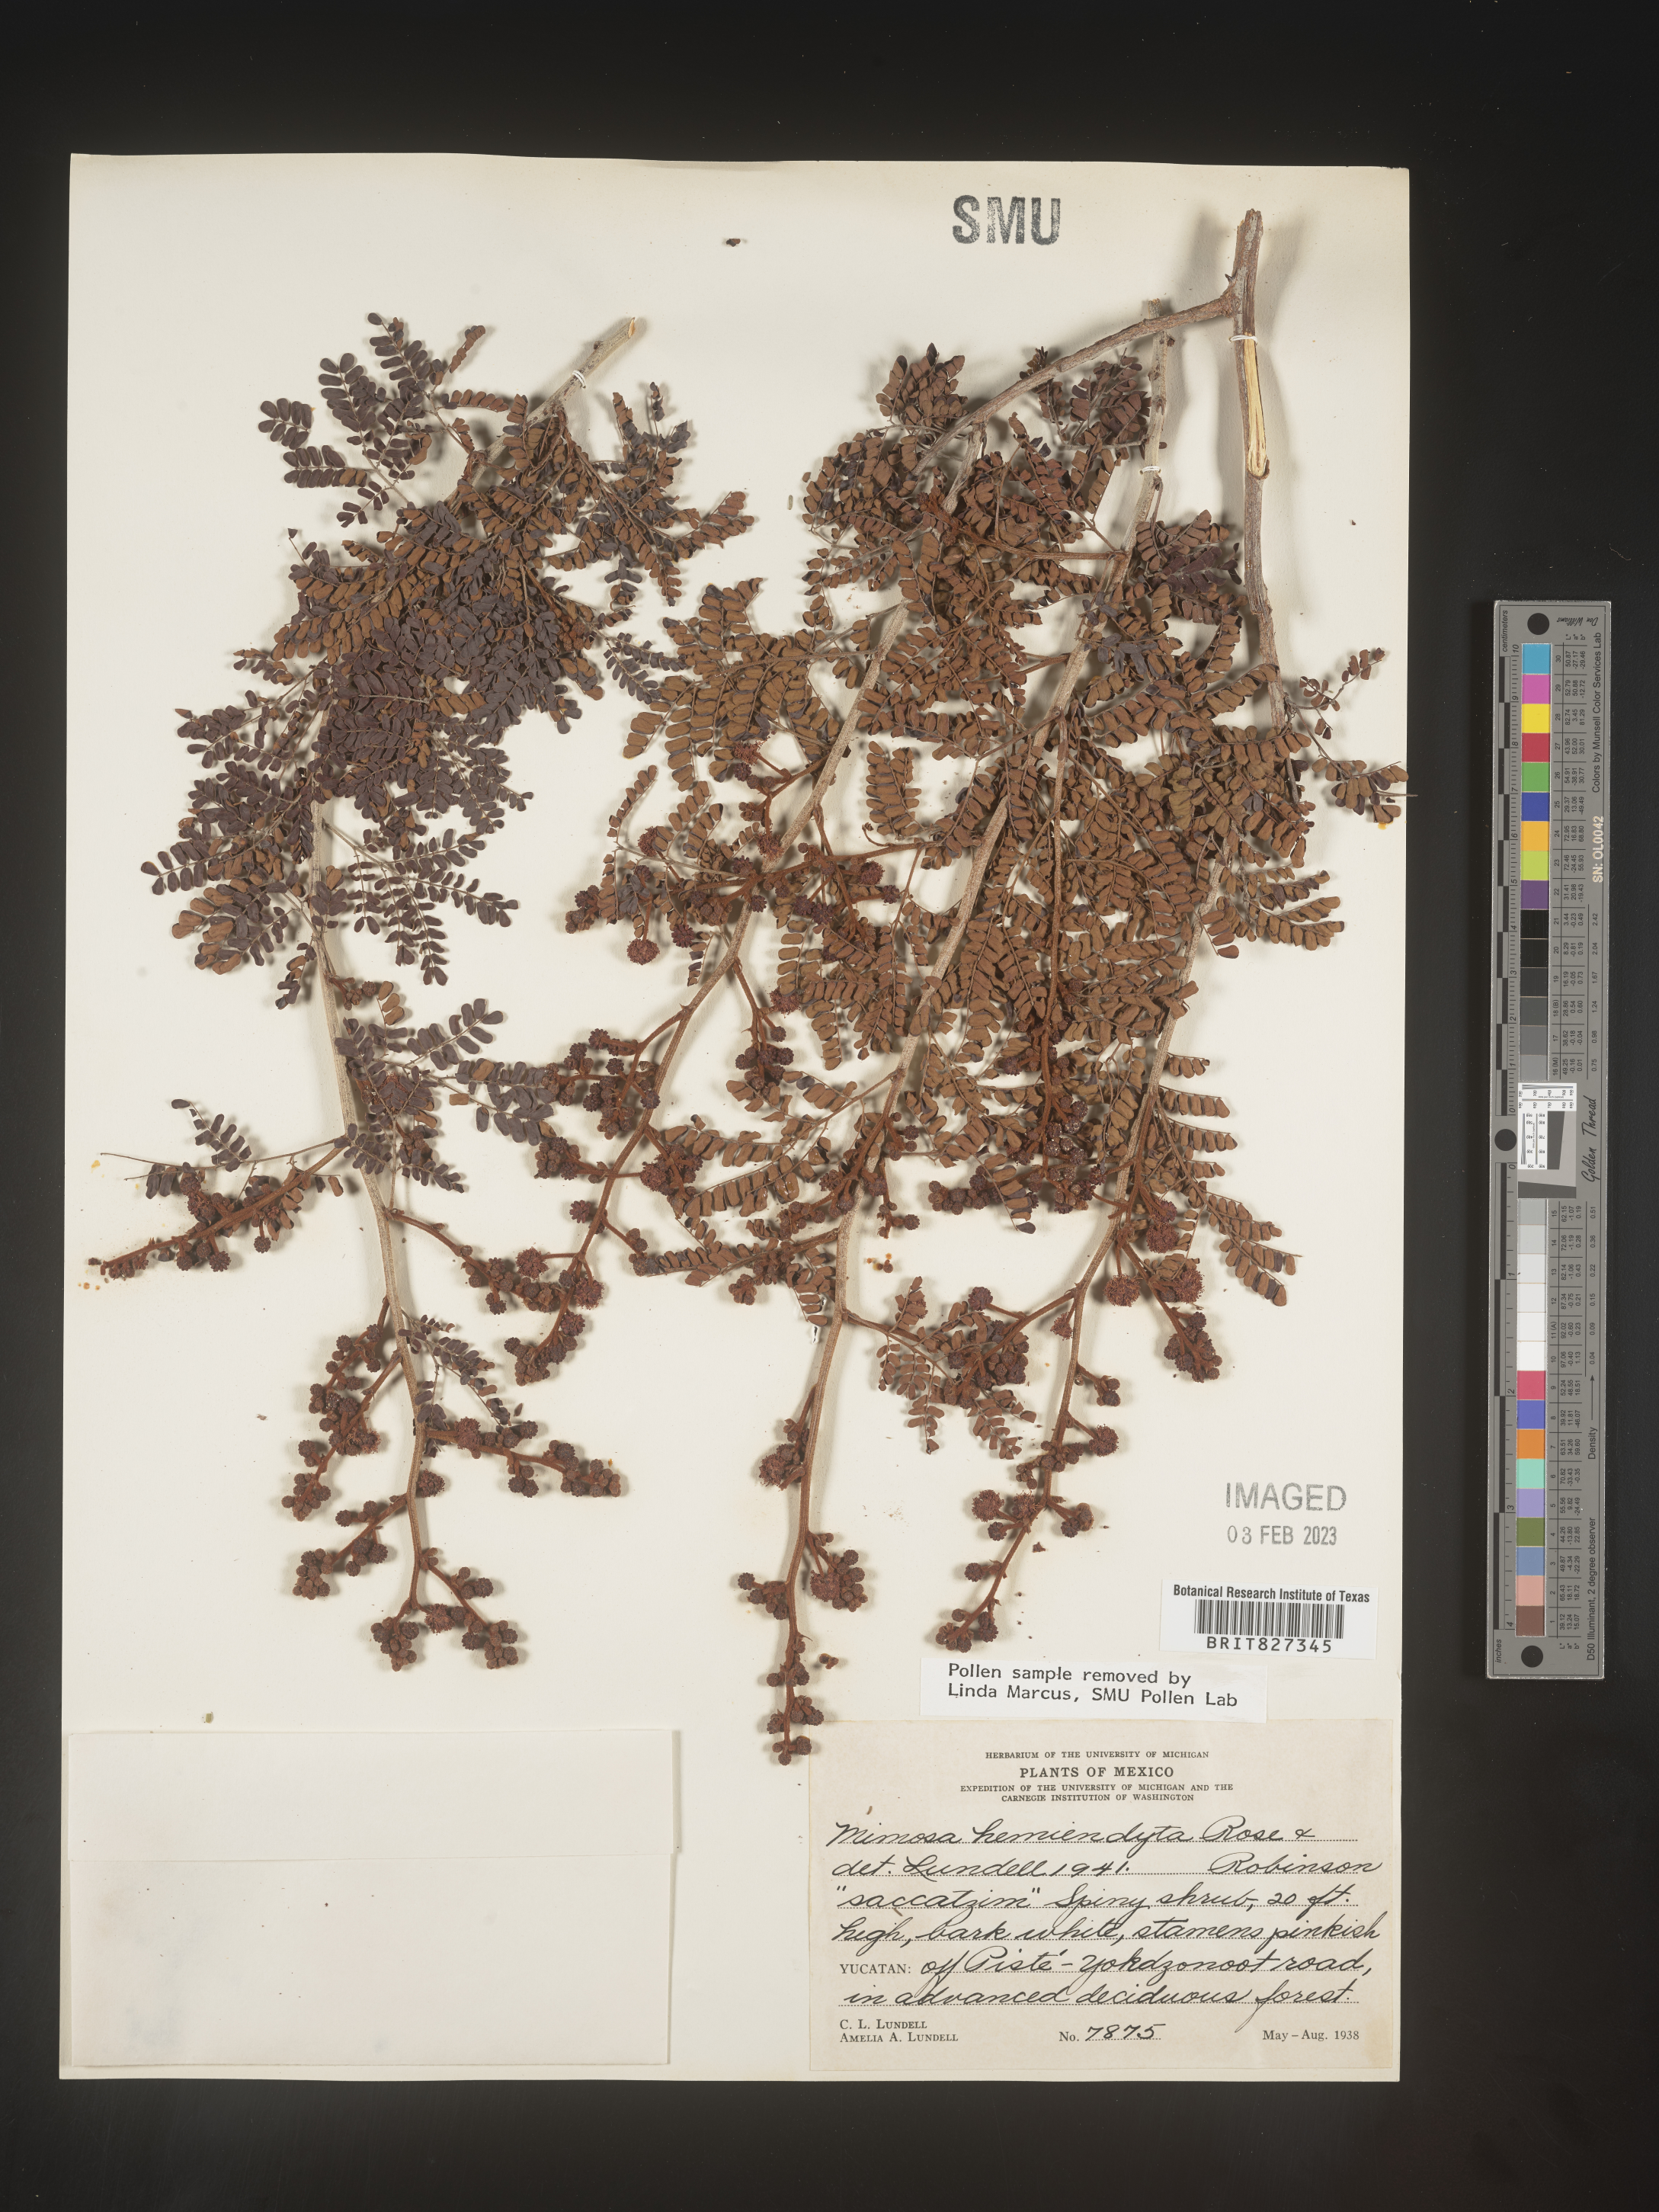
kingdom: Plantae
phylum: Tracheophyta
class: Magnoliopsida
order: Fabales
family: Fabaceae
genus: Mimosa
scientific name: Mimosa
